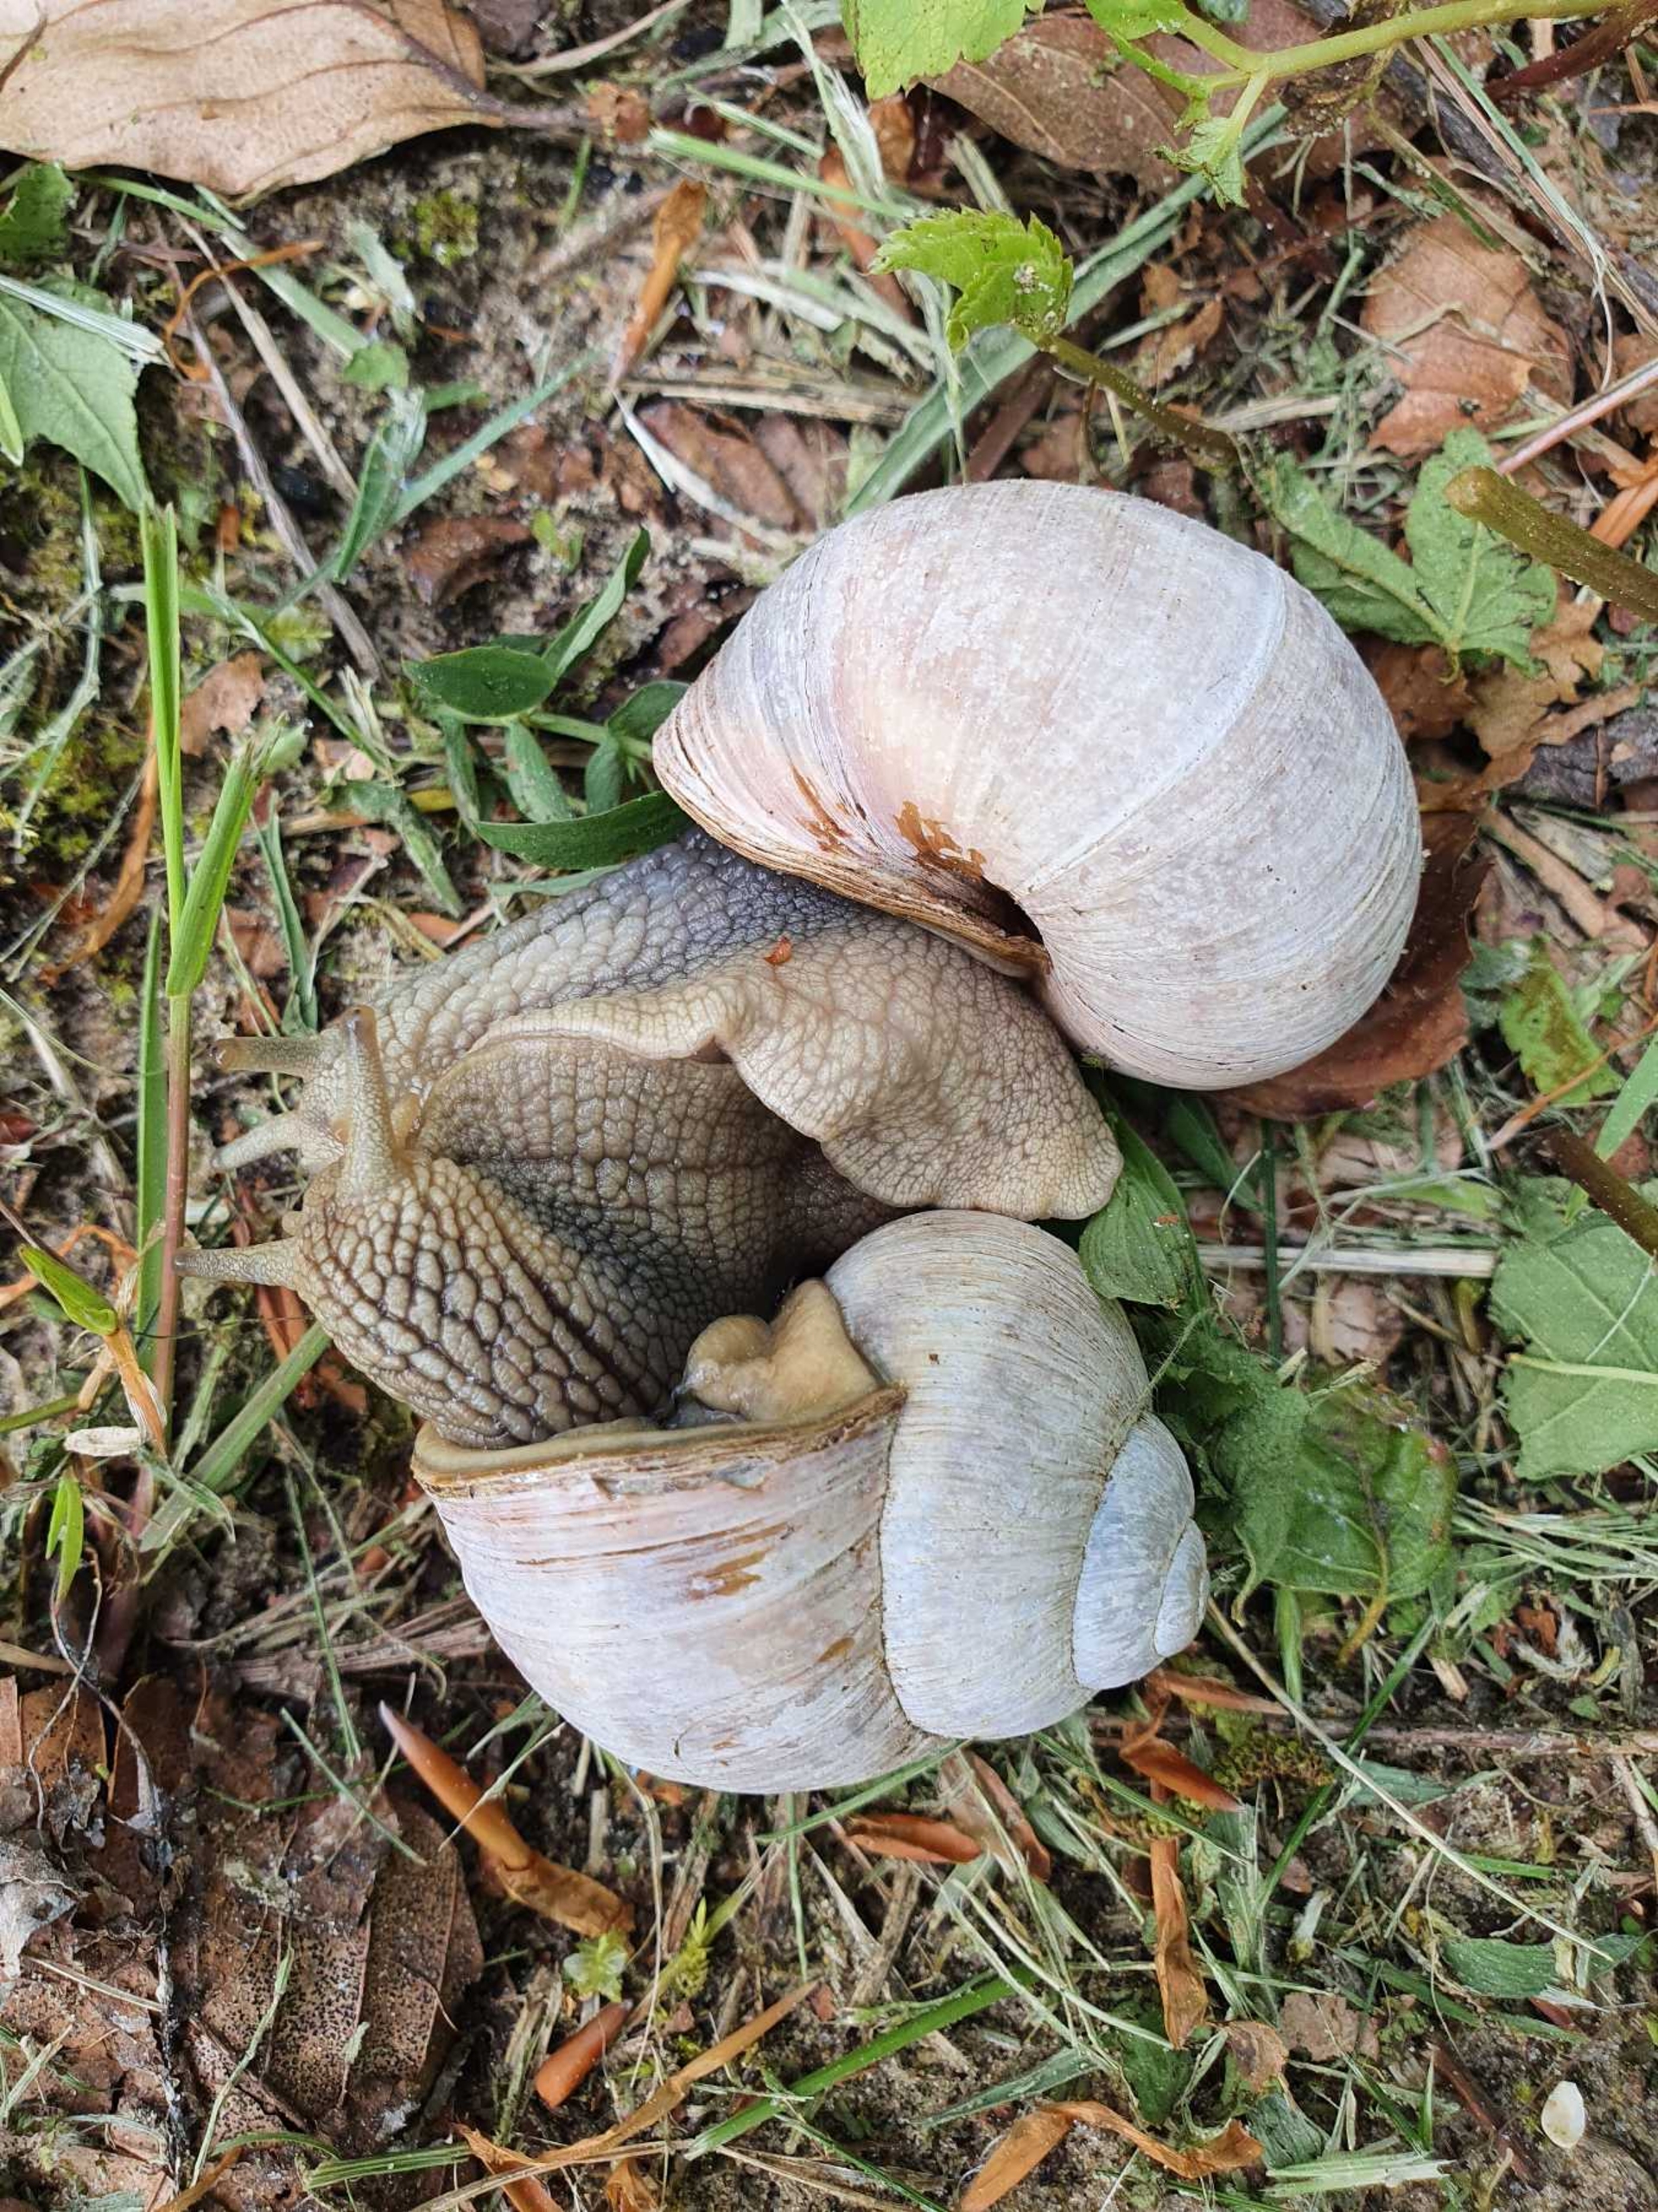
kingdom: Animalia
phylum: Mollusca
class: Gastropoda
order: Stylommatophora
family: Helicidae
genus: Helix
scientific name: Helix pomatia
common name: Vinbjergsnegl
